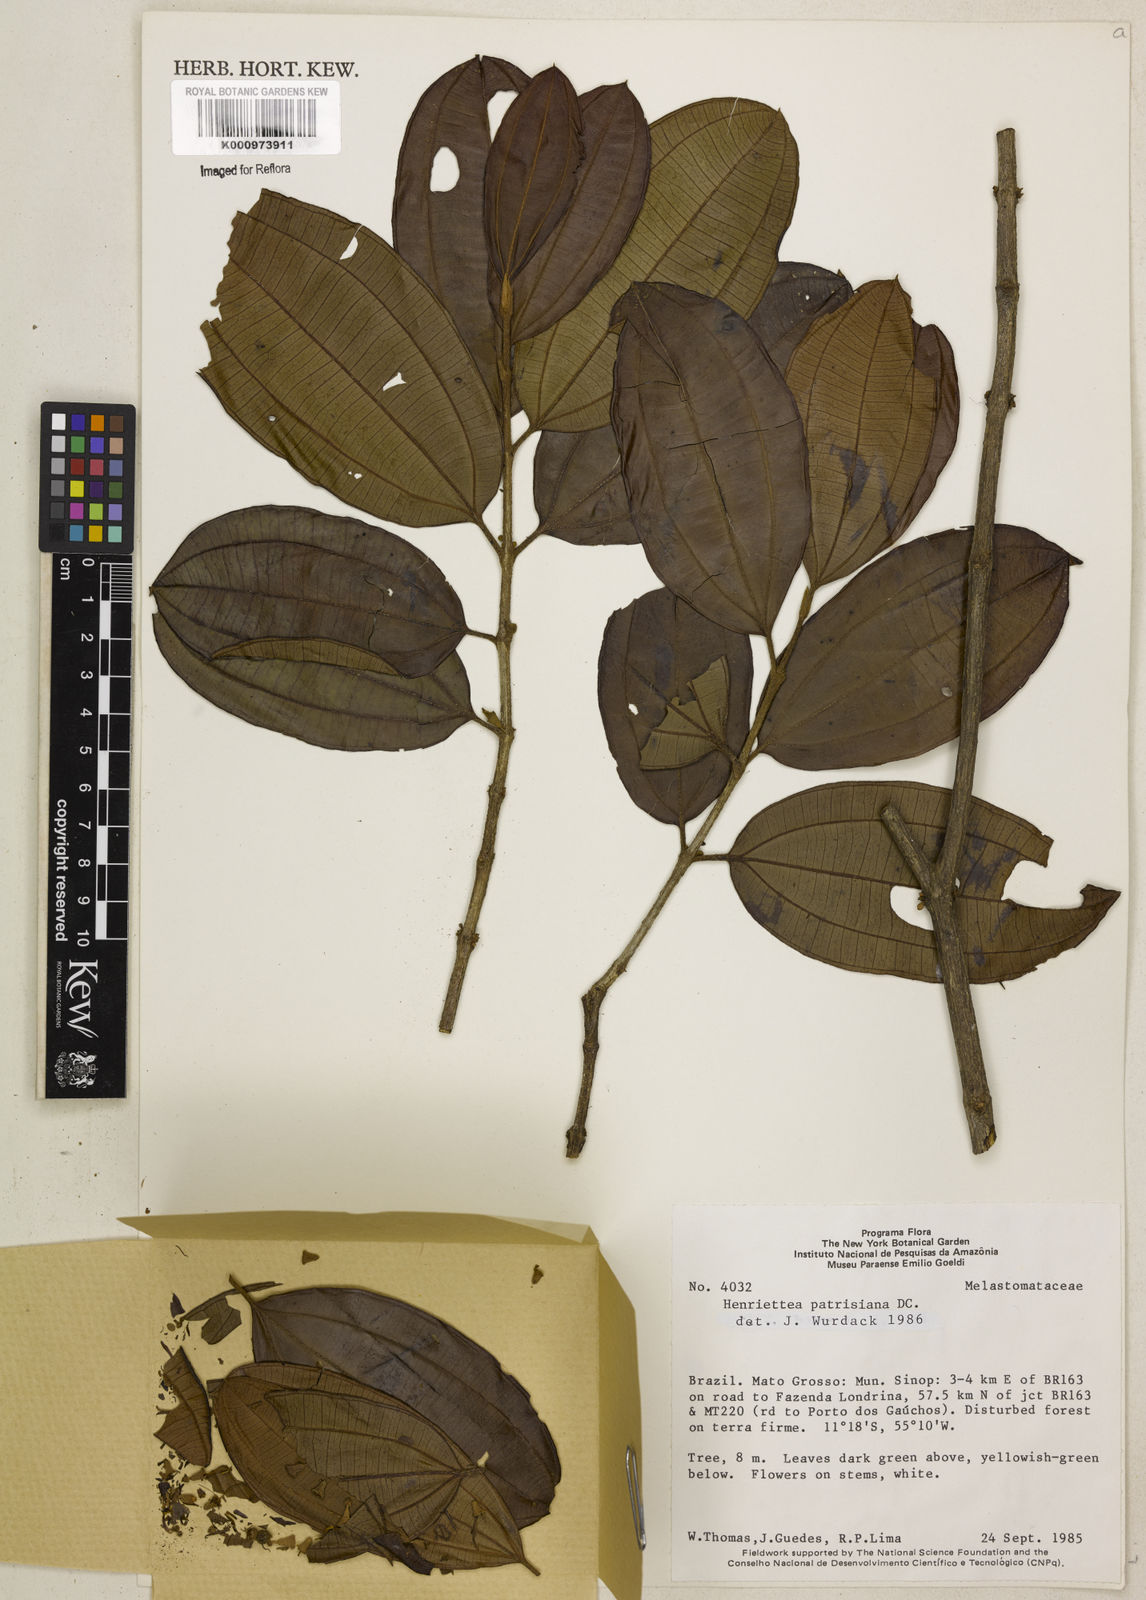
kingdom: Plantae
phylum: Tracheophyta
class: Magnoliopsida
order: Myrtales
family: Melastomataceae
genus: Henriettea
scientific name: Henriettea patrisiana
